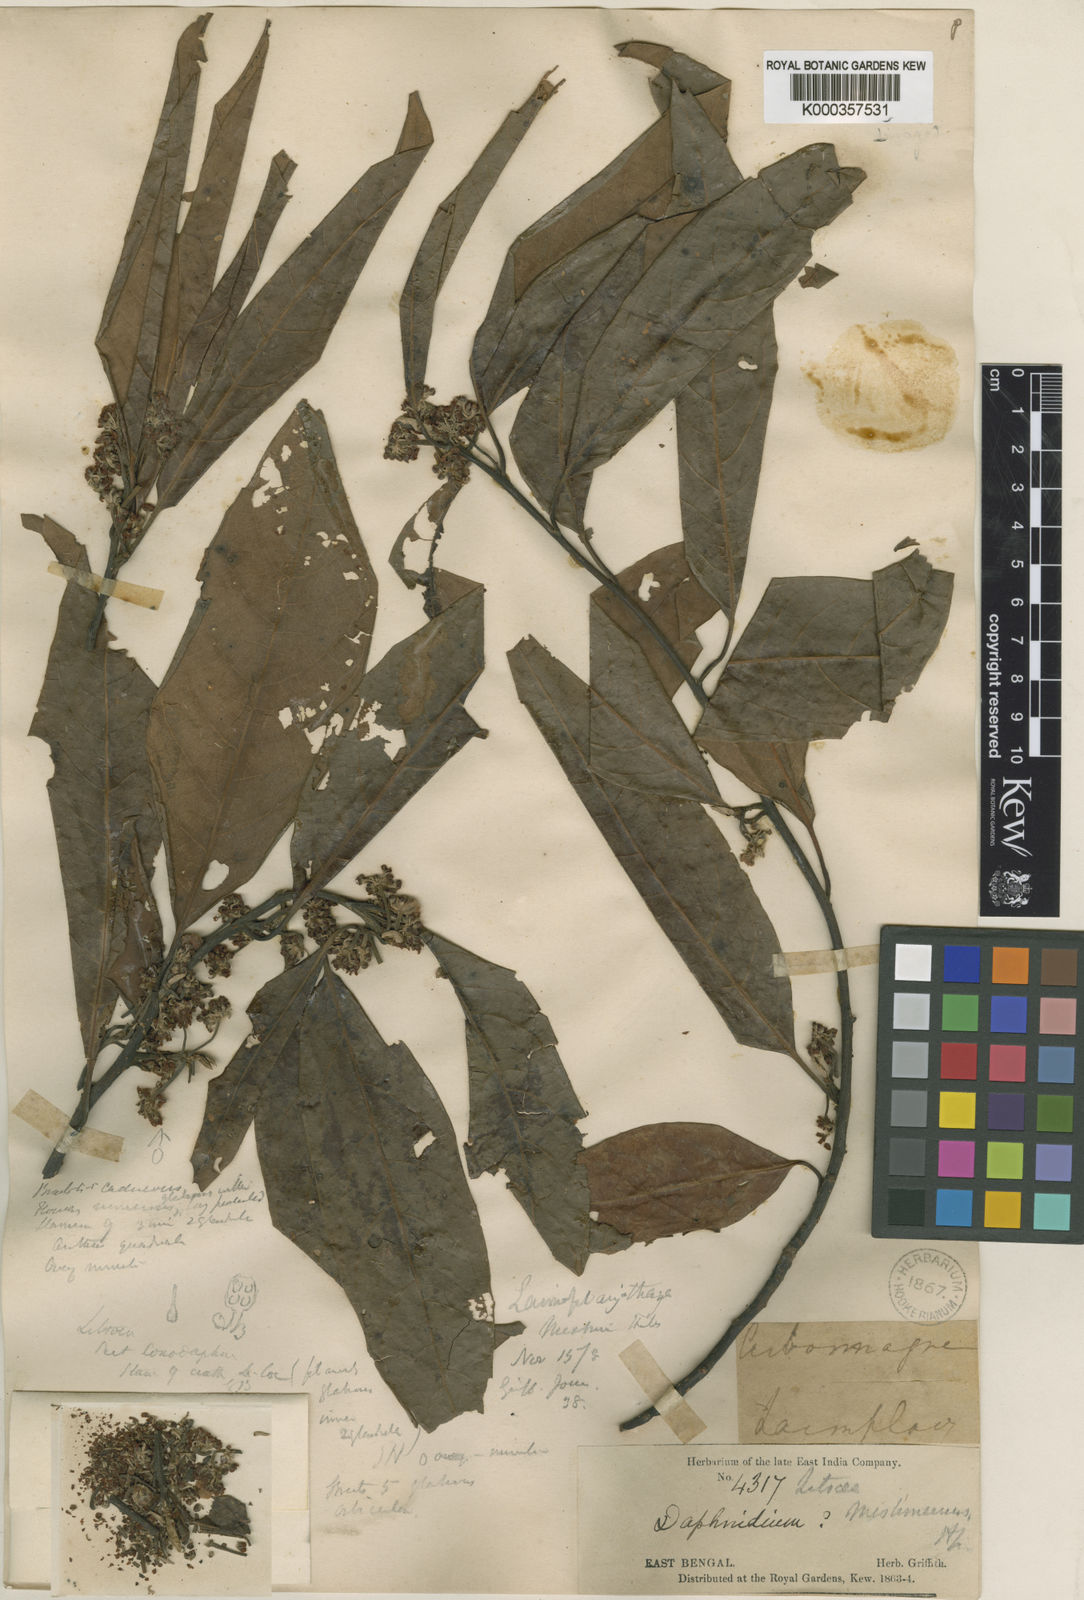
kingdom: Plantae
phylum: Tracheophyta
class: Magnoliopsida
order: Laurales
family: Lauraceae
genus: Litsea
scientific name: Litsea mishmiensis
